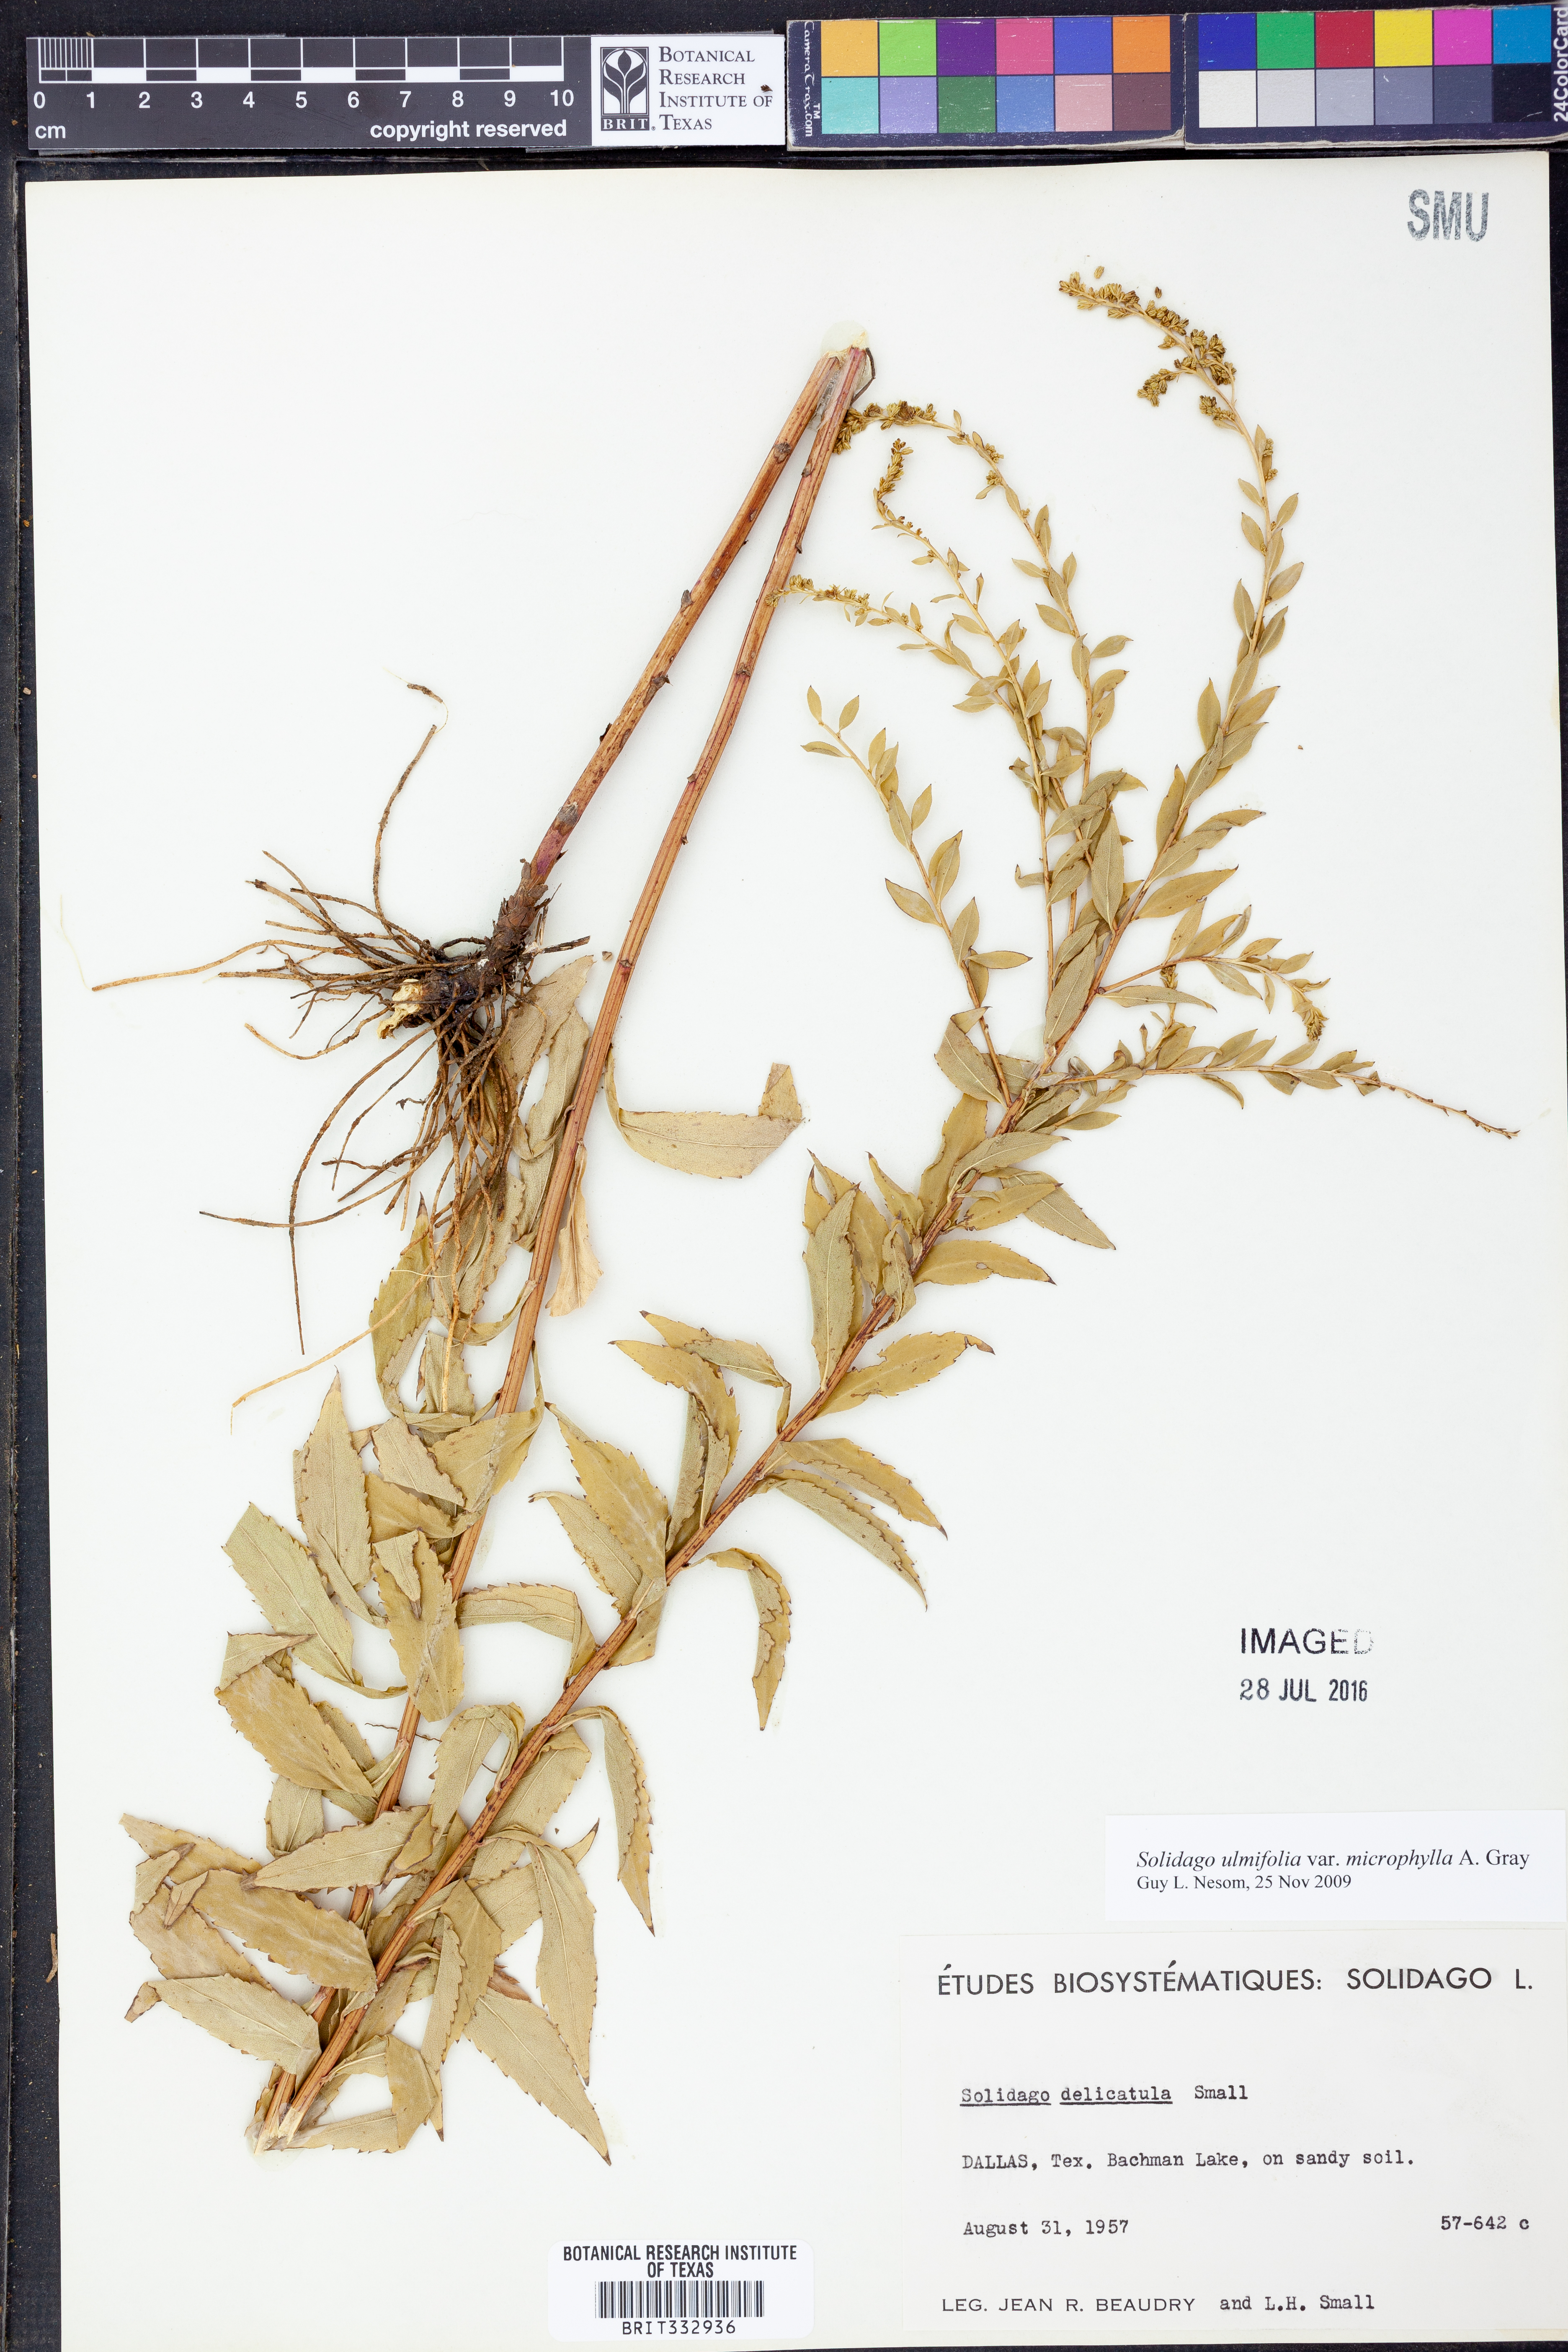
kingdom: Plantae
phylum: Tracheophyta
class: Magnoliopsida
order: Asterales
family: Asteraceae
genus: Solidago
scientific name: Solidago delicatula
